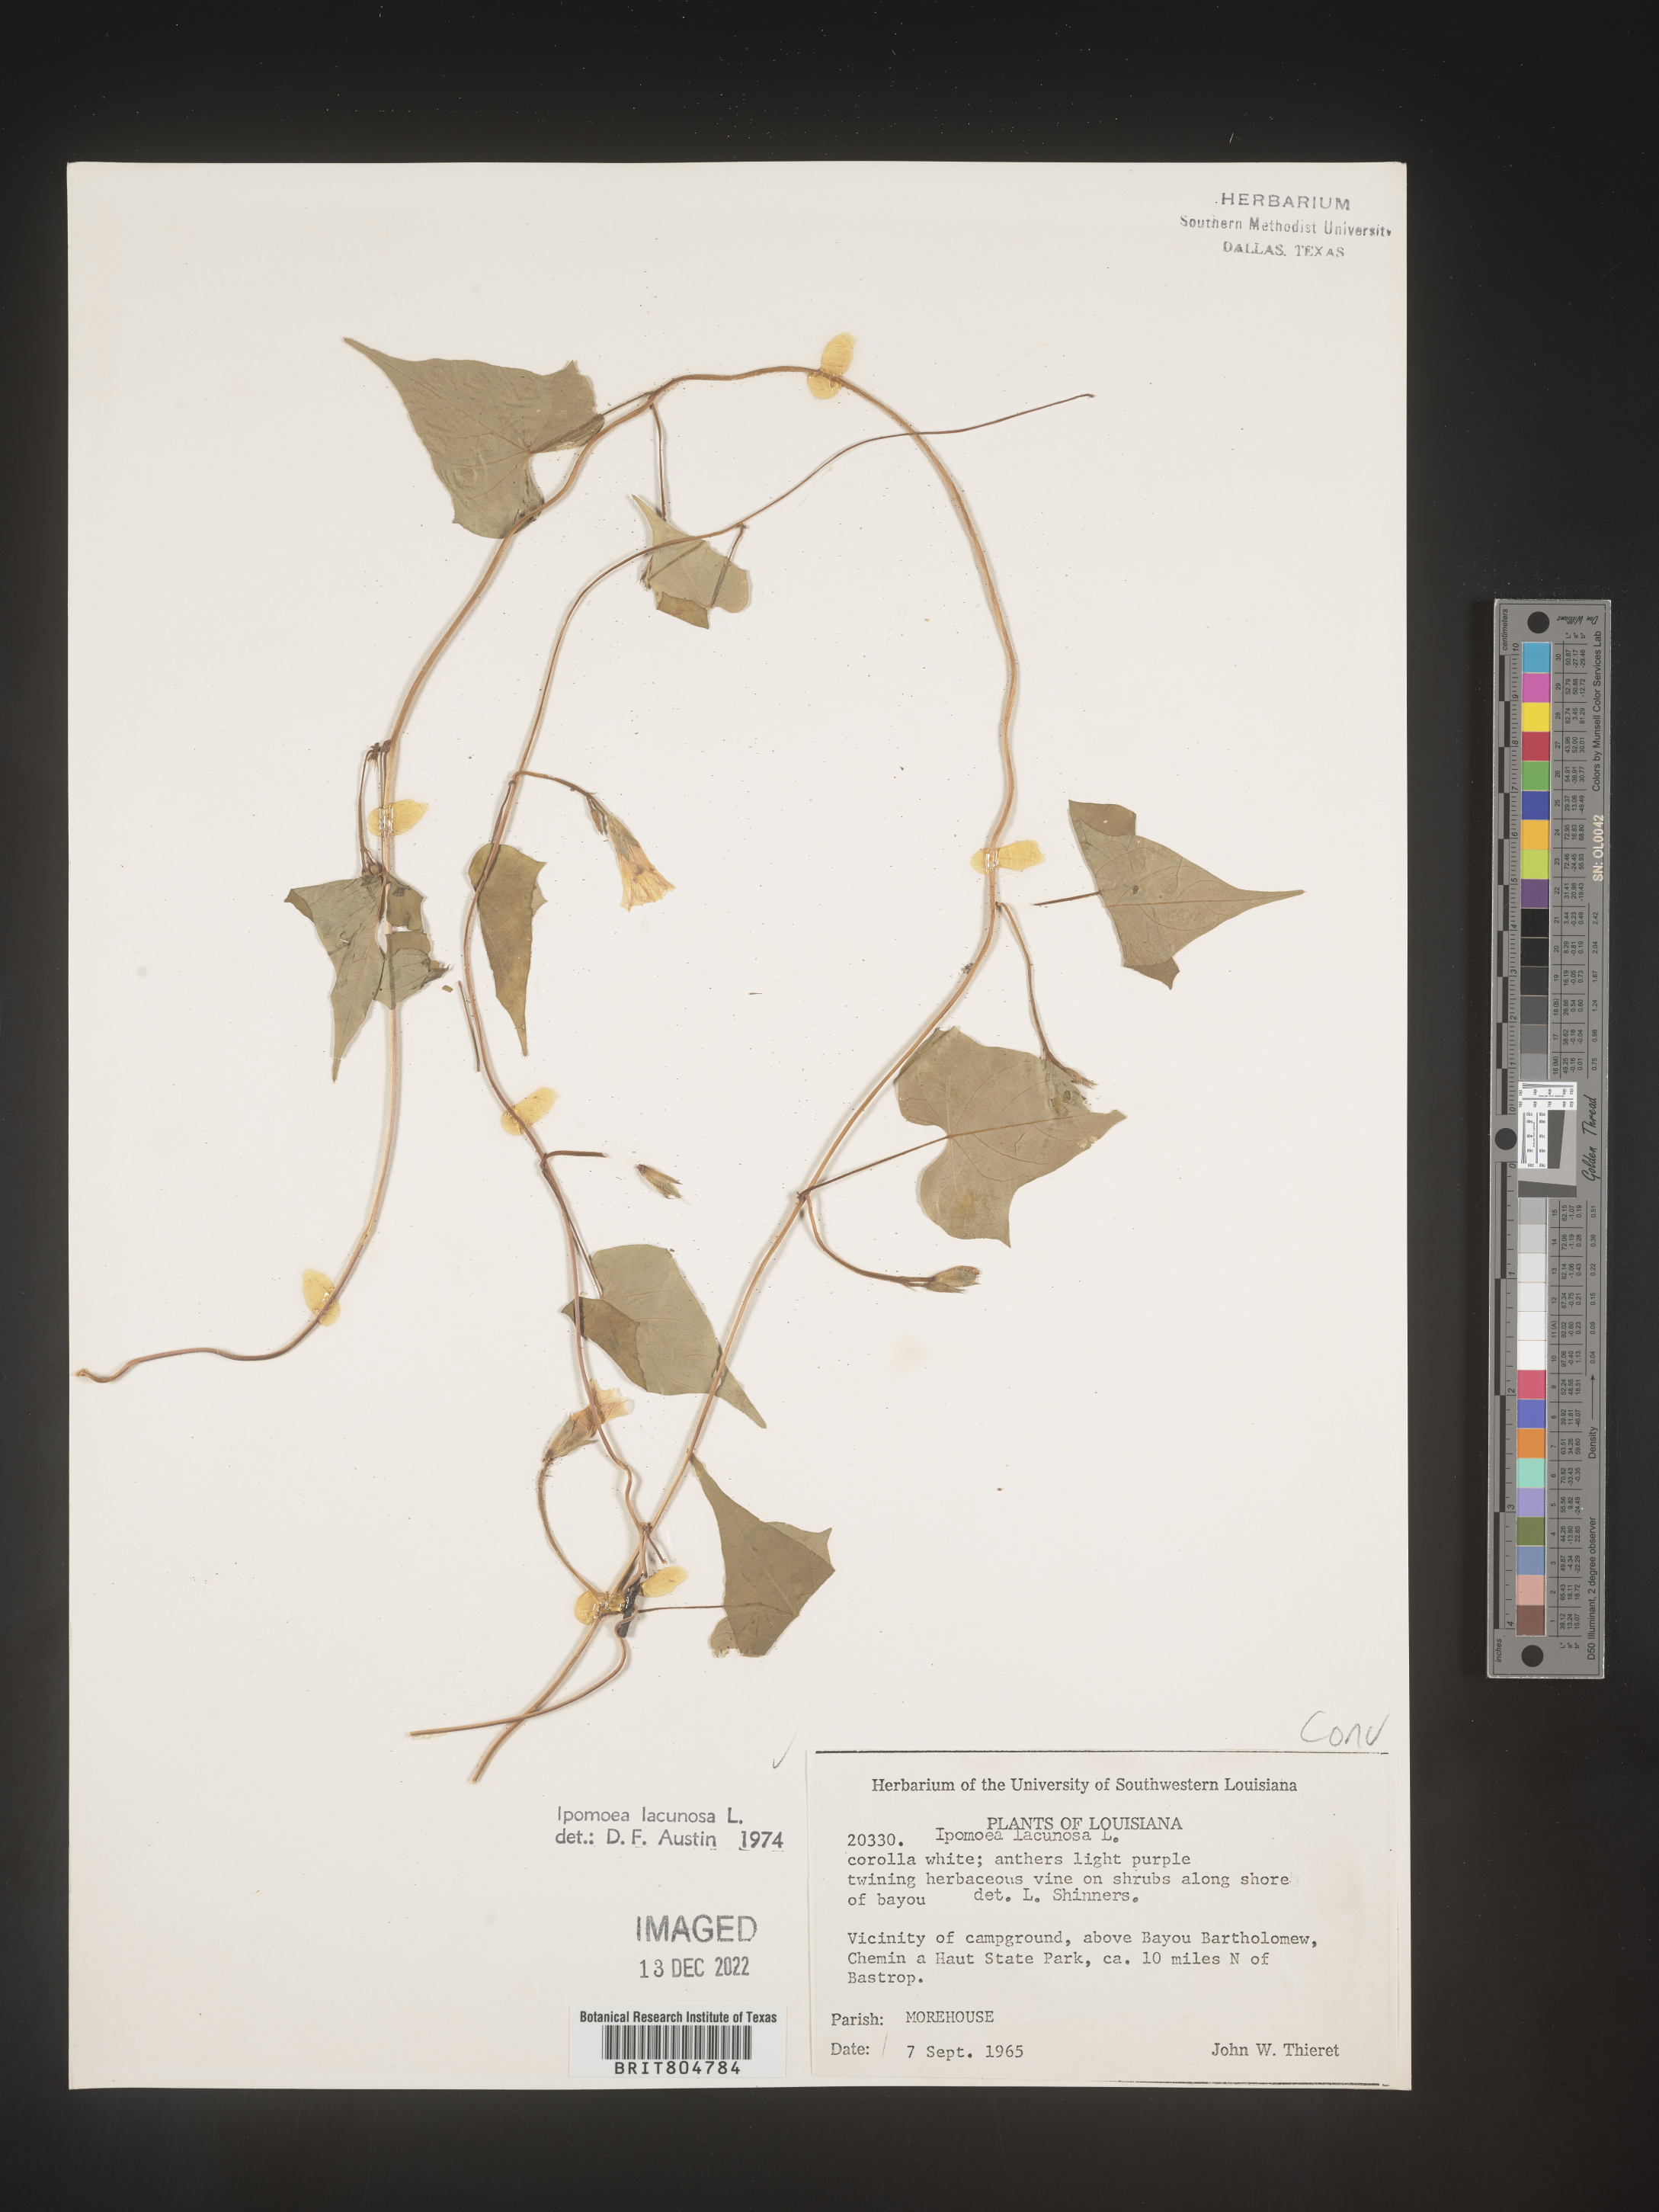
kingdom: Plantae
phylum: Tracheophyta
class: Magnoliopsida
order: Solanales
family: Convolvulaceae
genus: Ipomoea
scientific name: Ipomoea lacunosa
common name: White morning-glory
